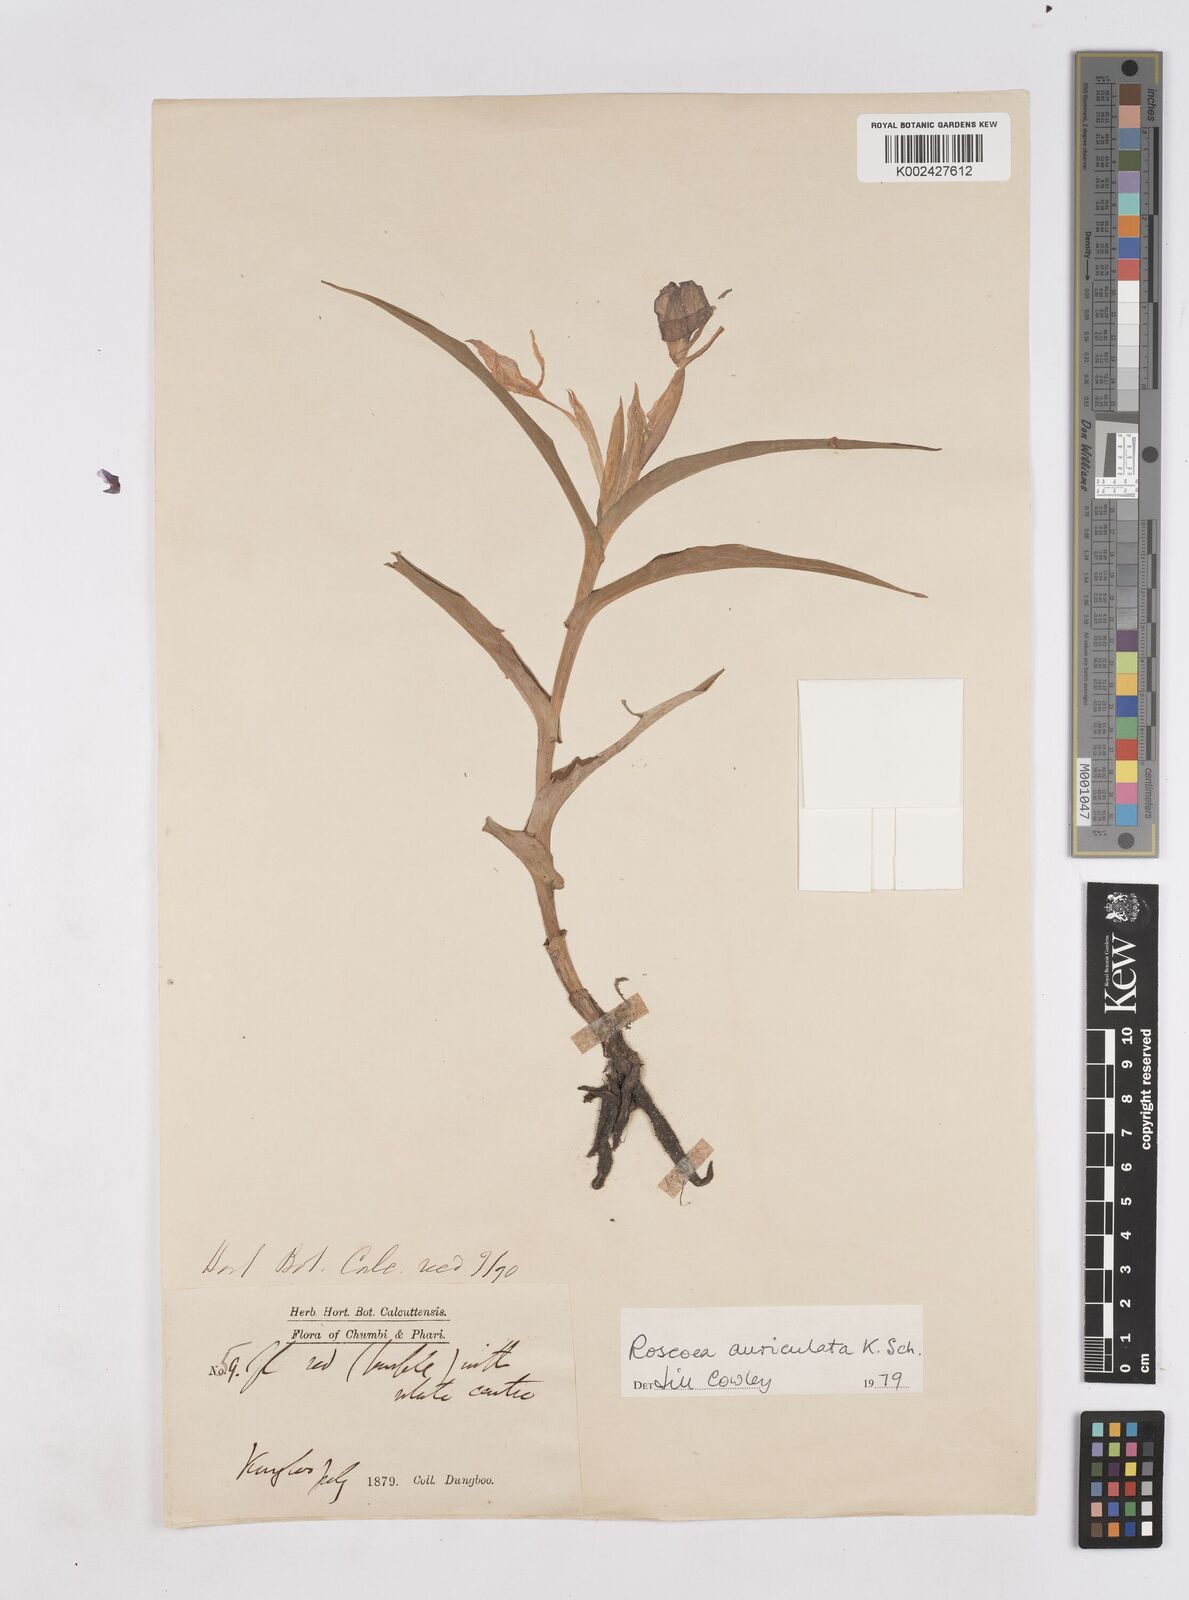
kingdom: Plantae
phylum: Tracheophyta
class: Liliopsida
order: Zingiberales
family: Zingiberaceae
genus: Roscoea
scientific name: Roscoea auriculata
